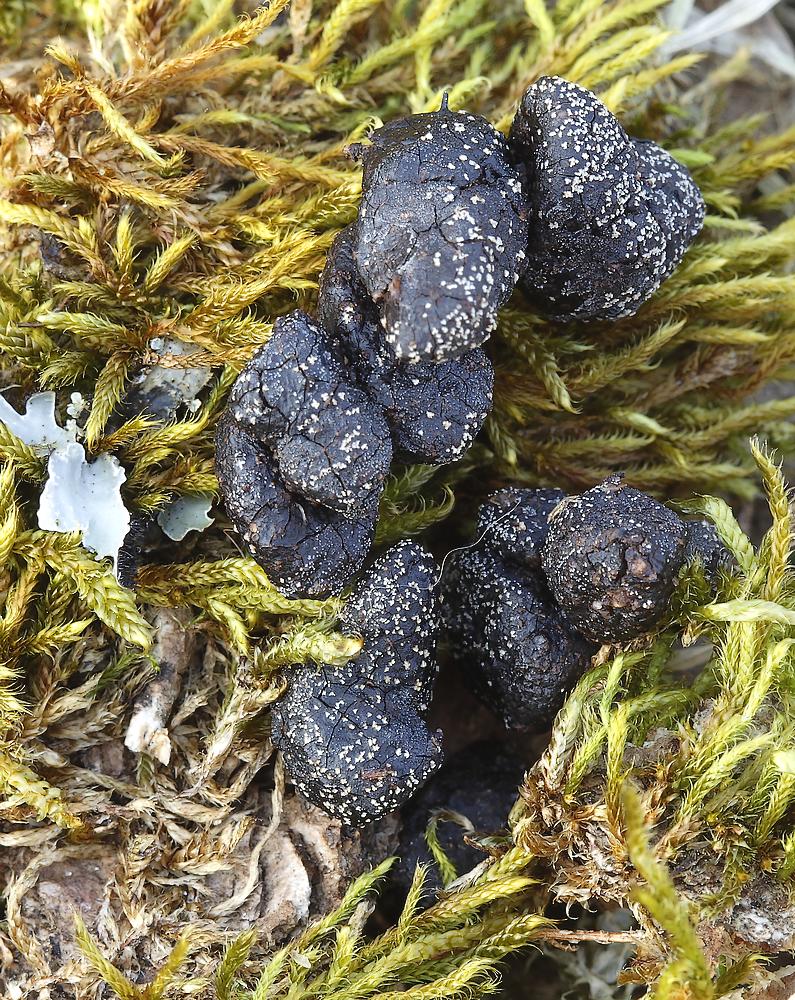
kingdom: Fungi
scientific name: Fungi
